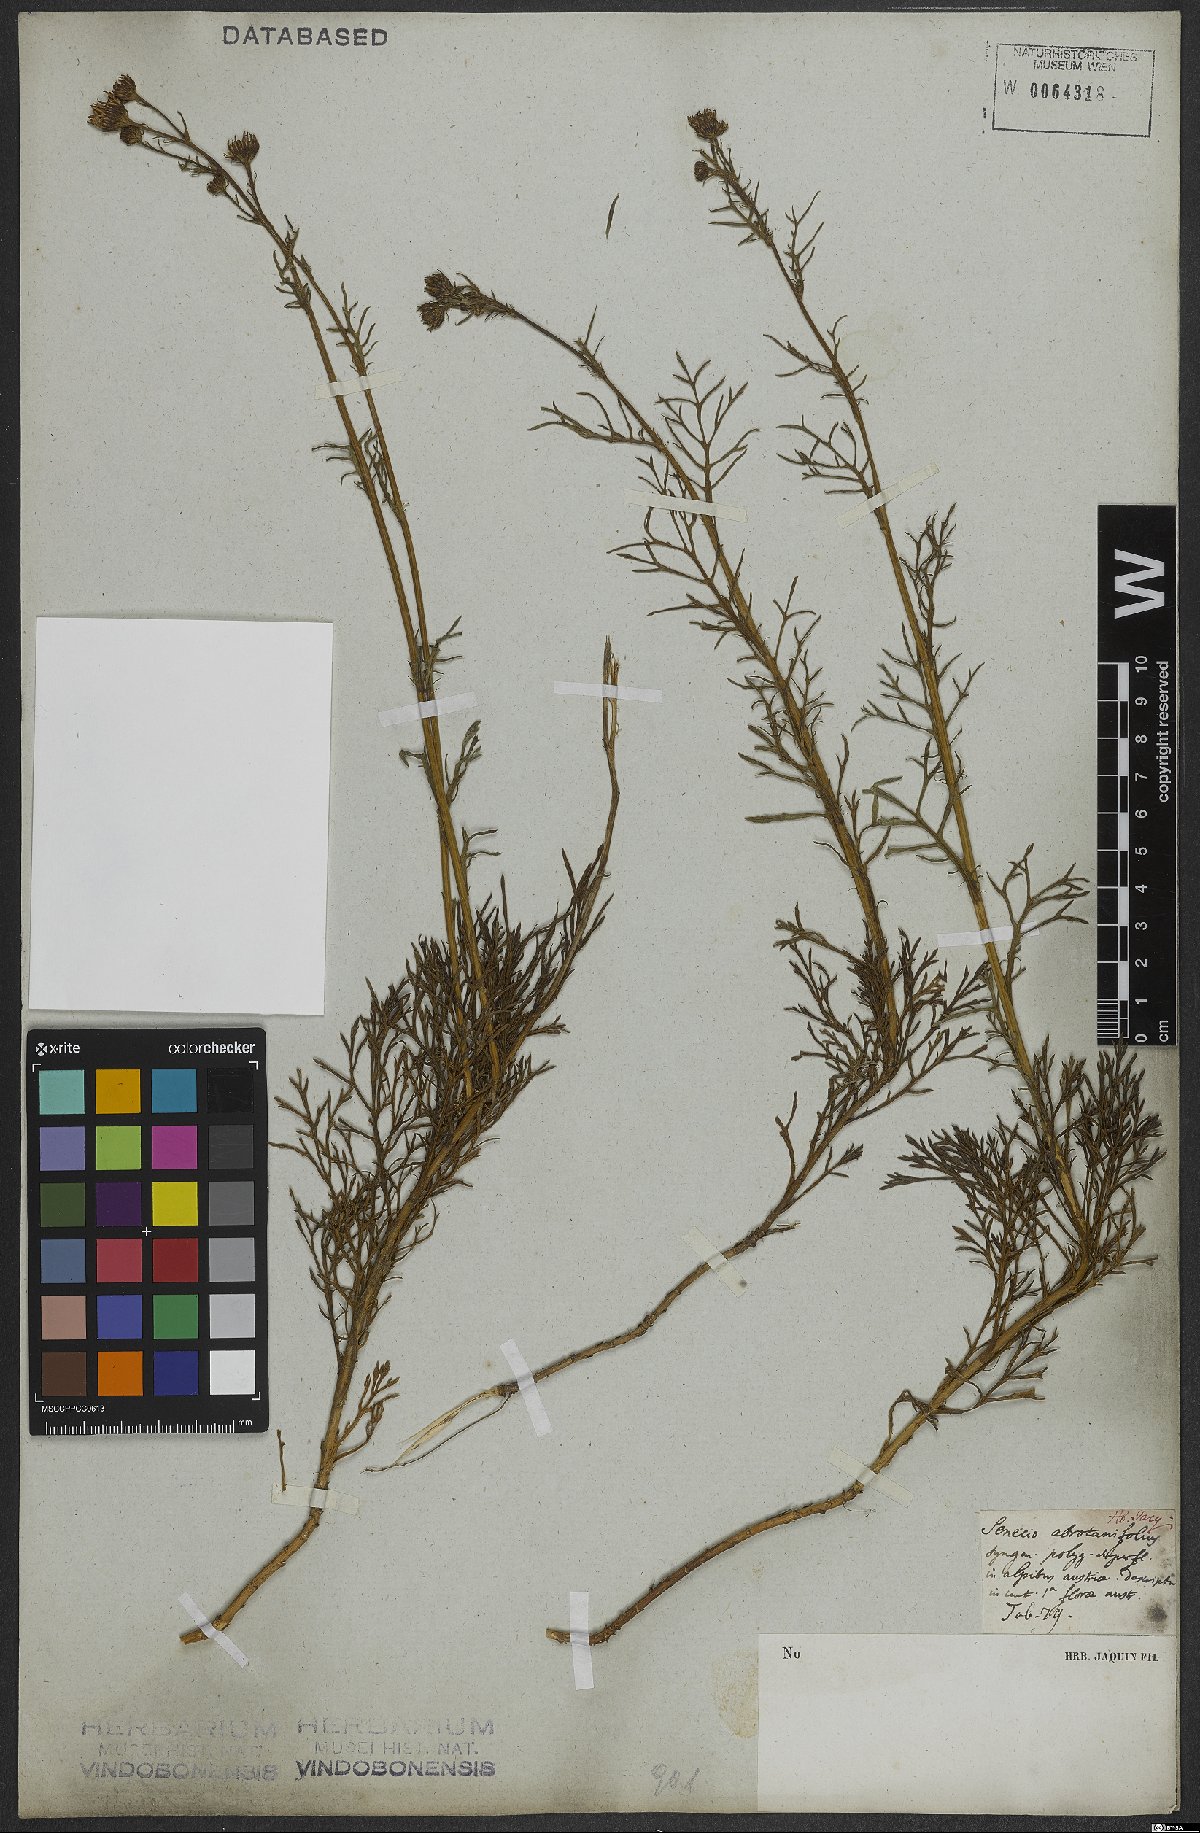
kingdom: Plantae
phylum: Tracheophyta
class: Magnoliopsida
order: Asterales
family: Asteraceae
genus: Jacobaea
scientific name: Jacobaea abrotanifolia
